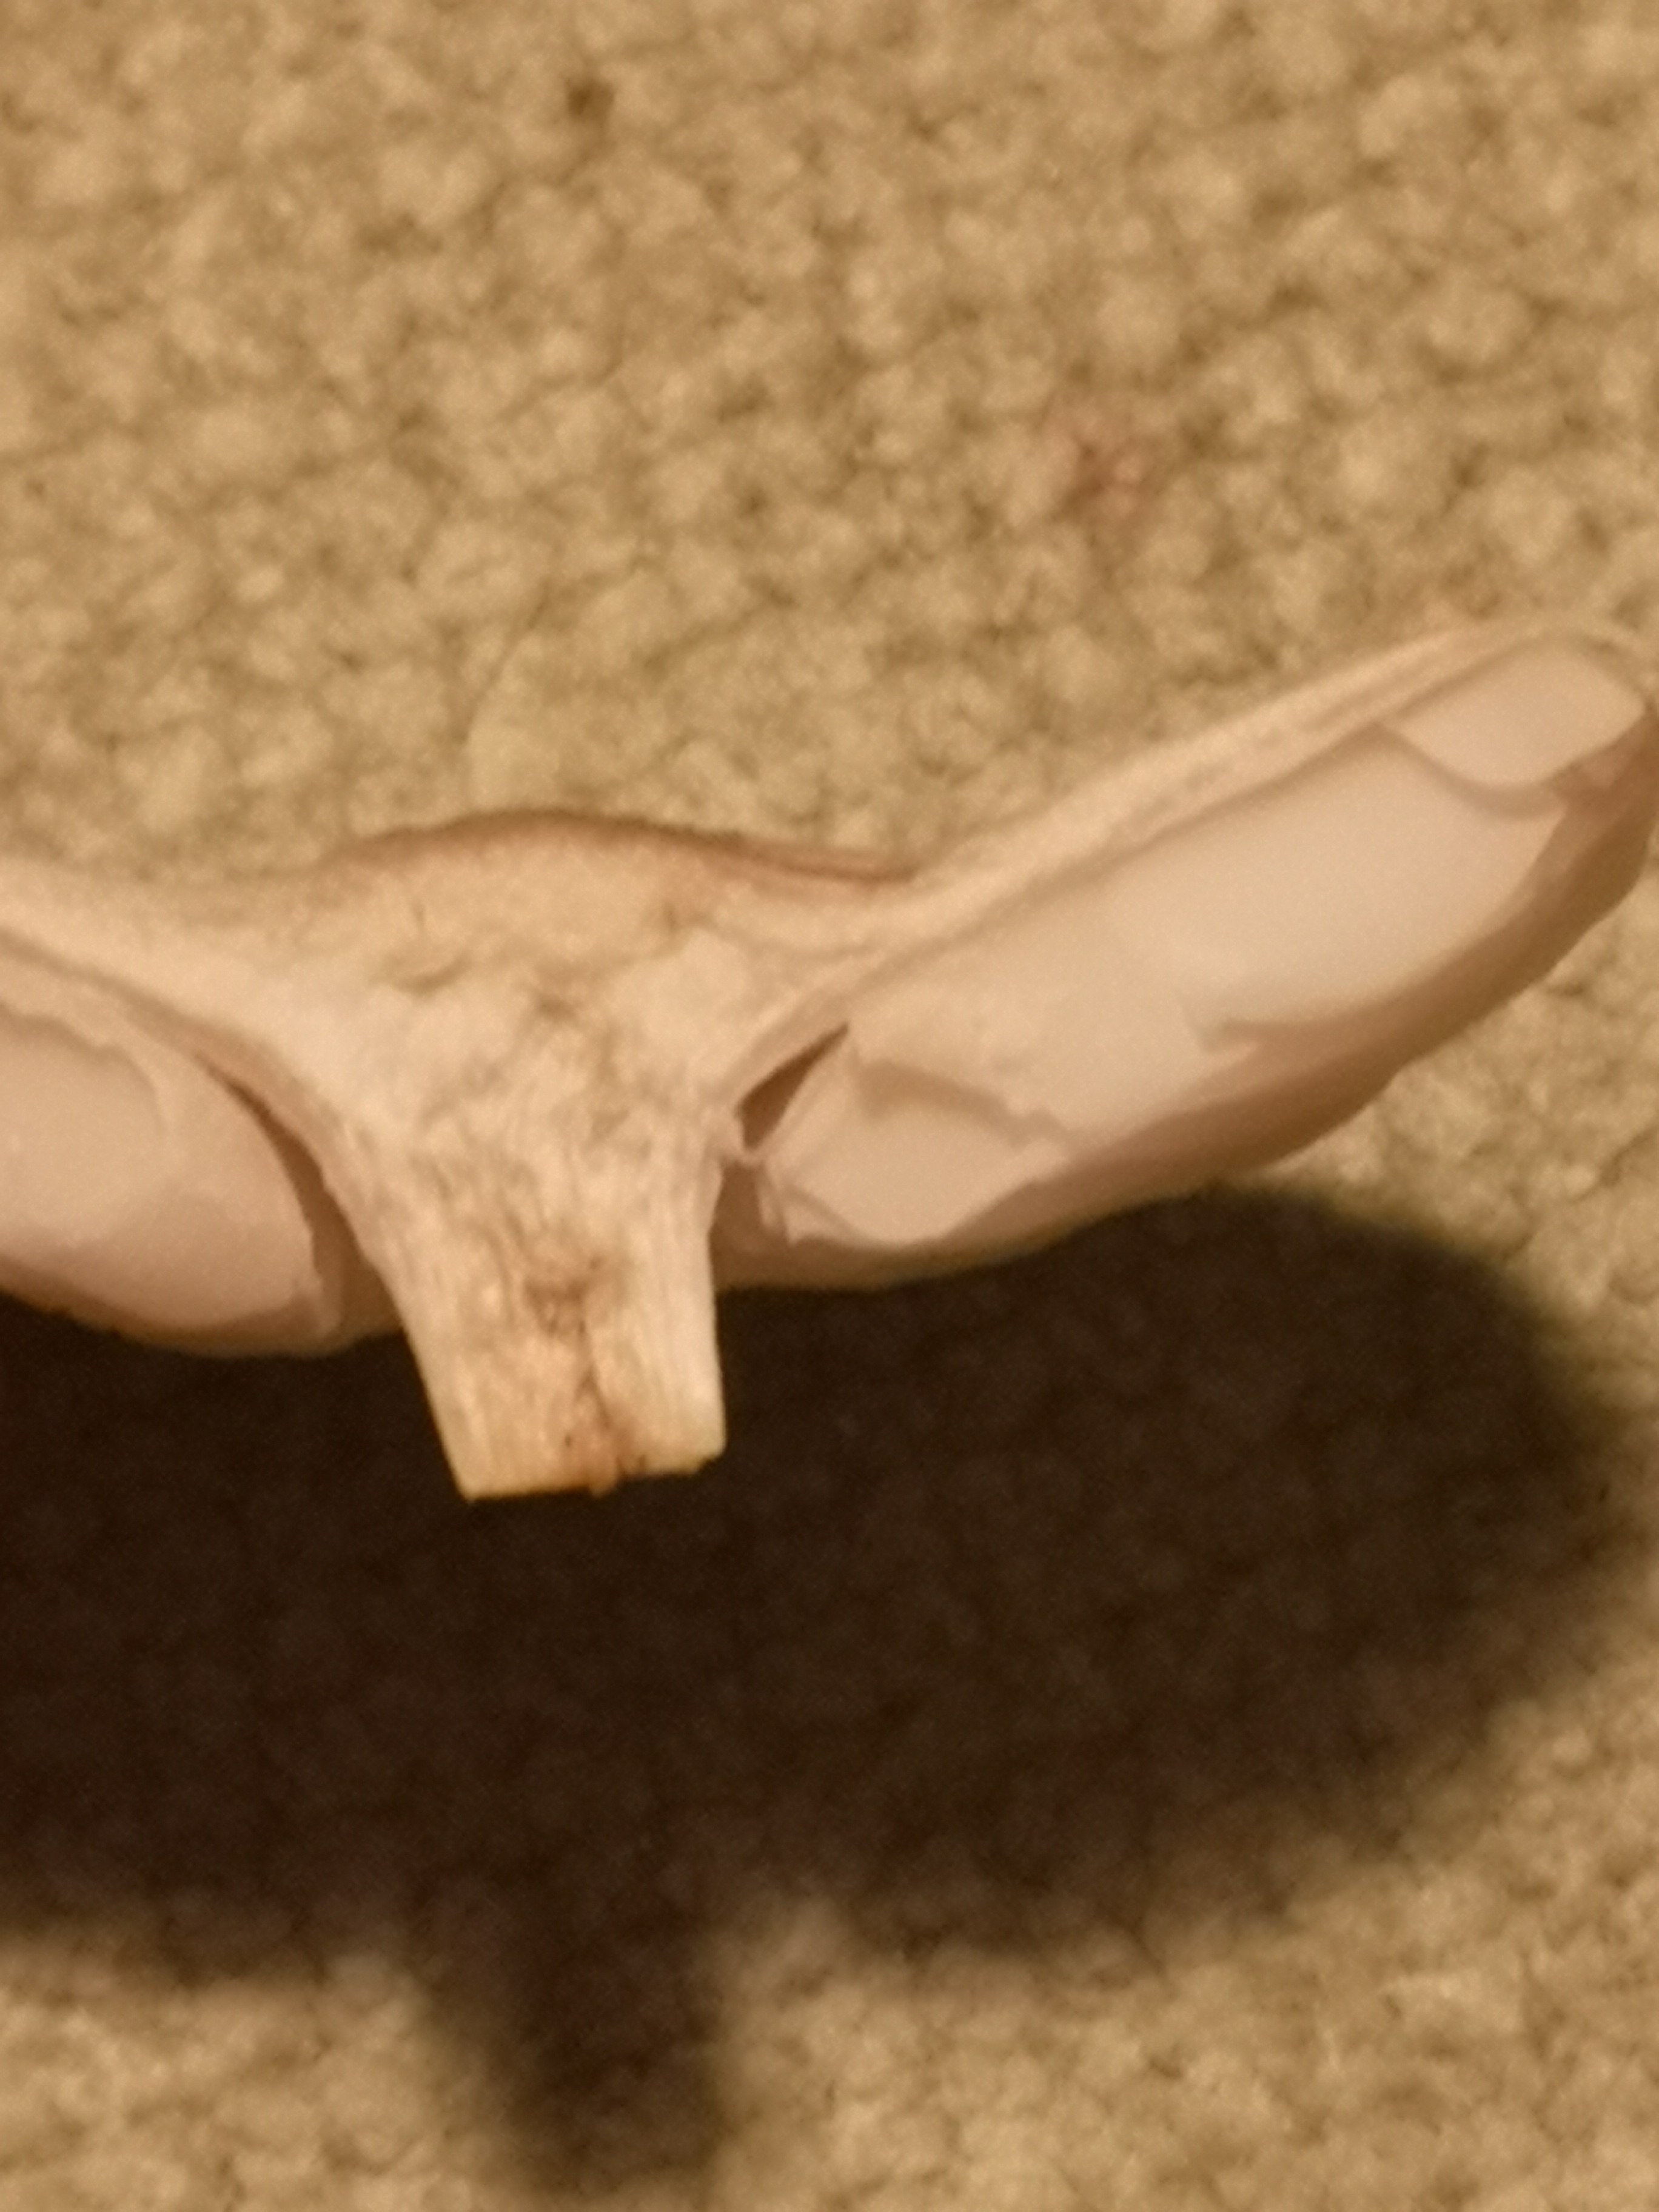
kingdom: Fungi
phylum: Basidiomycota
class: Agaricomycetes
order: Agaricales
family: Tricholomataceae
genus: Melanoleuca
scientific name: Melanoleuca
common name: munkehat
